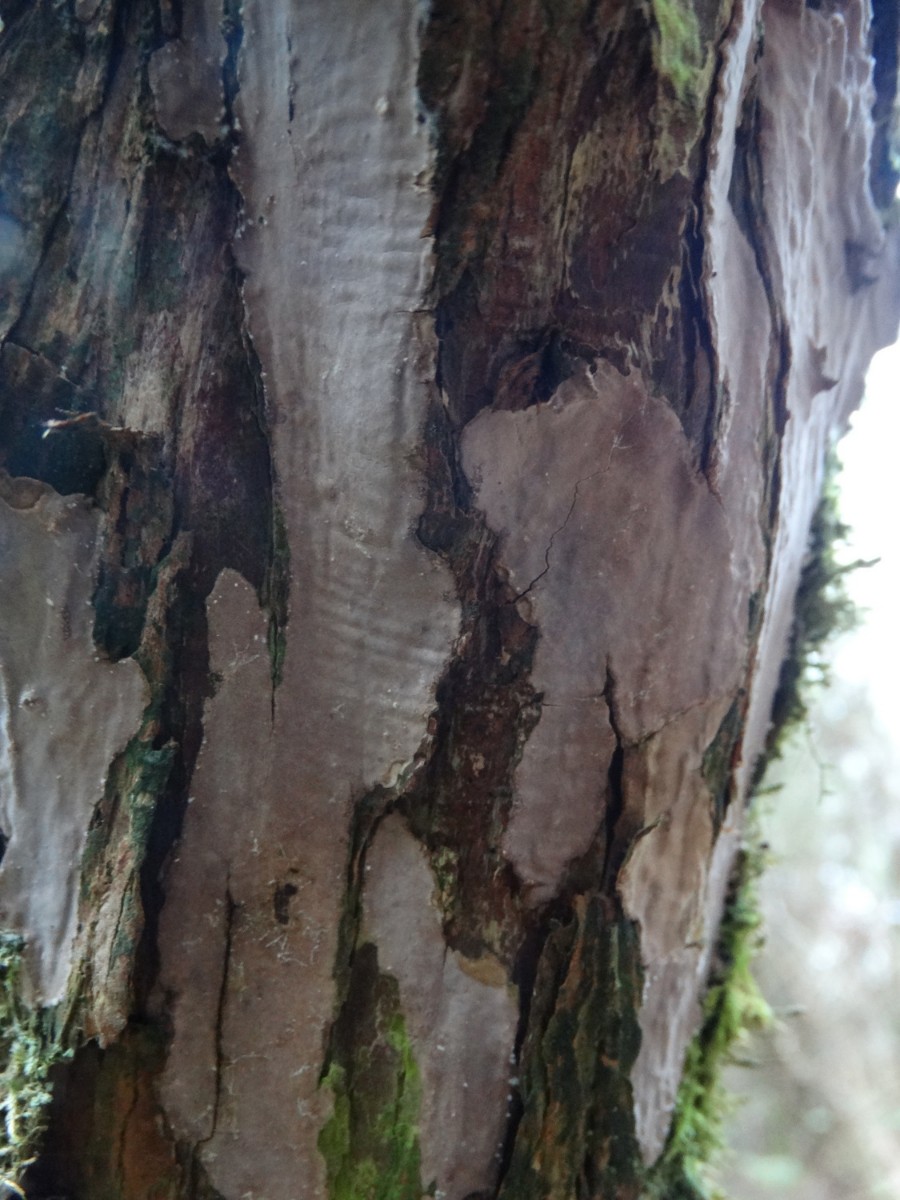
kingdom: Fungi
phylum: Basidiomycota
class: Agaricomycetes
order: Russulales
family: Echinodontiaceae
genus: Amylostereum
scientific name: Amylostereum laevigatum
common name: ene-lædersvamp
